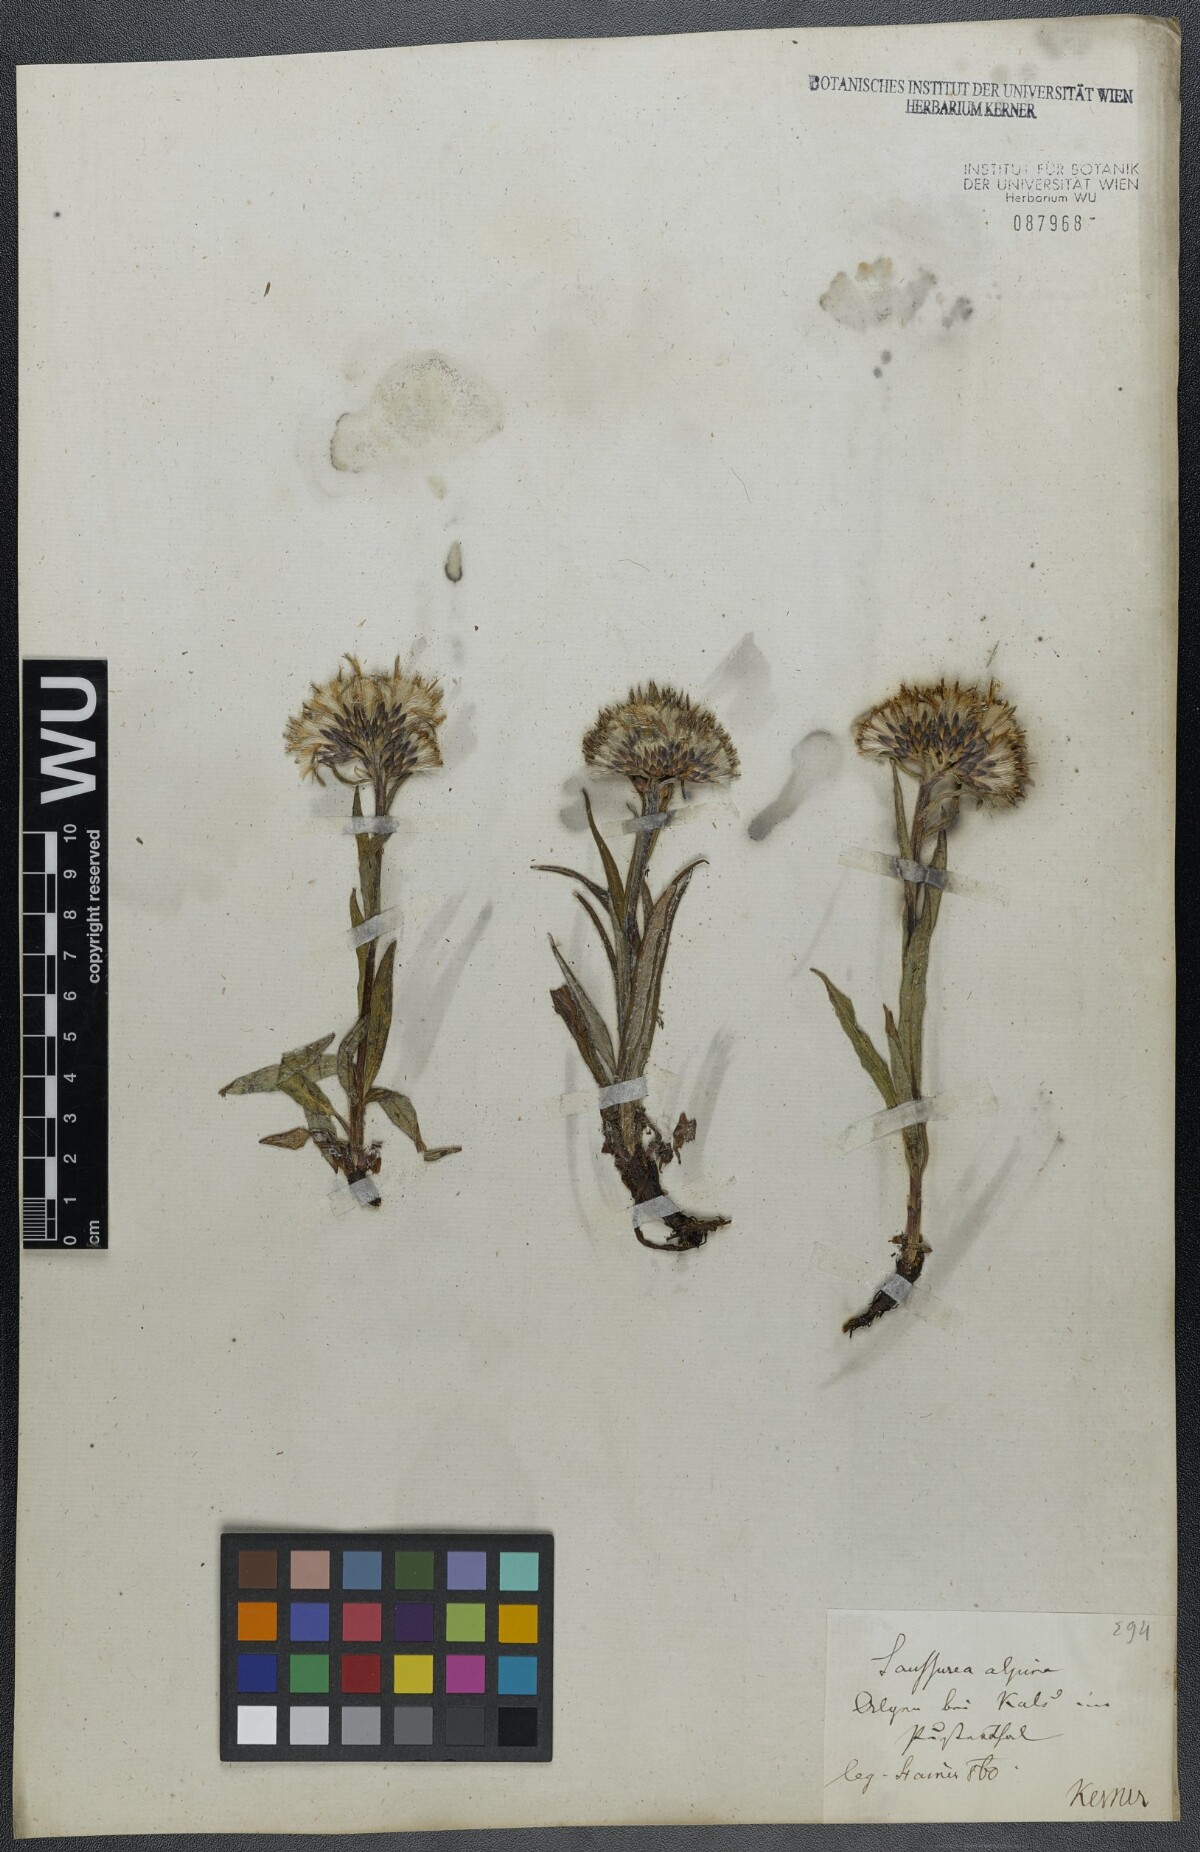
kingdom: Plantae
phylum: Tracheophyta
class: Magnoliopsida
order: Asterales
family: Asteraceae
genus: Saussurea
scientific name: Saussurea alpina
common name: Alpine saw-wort
